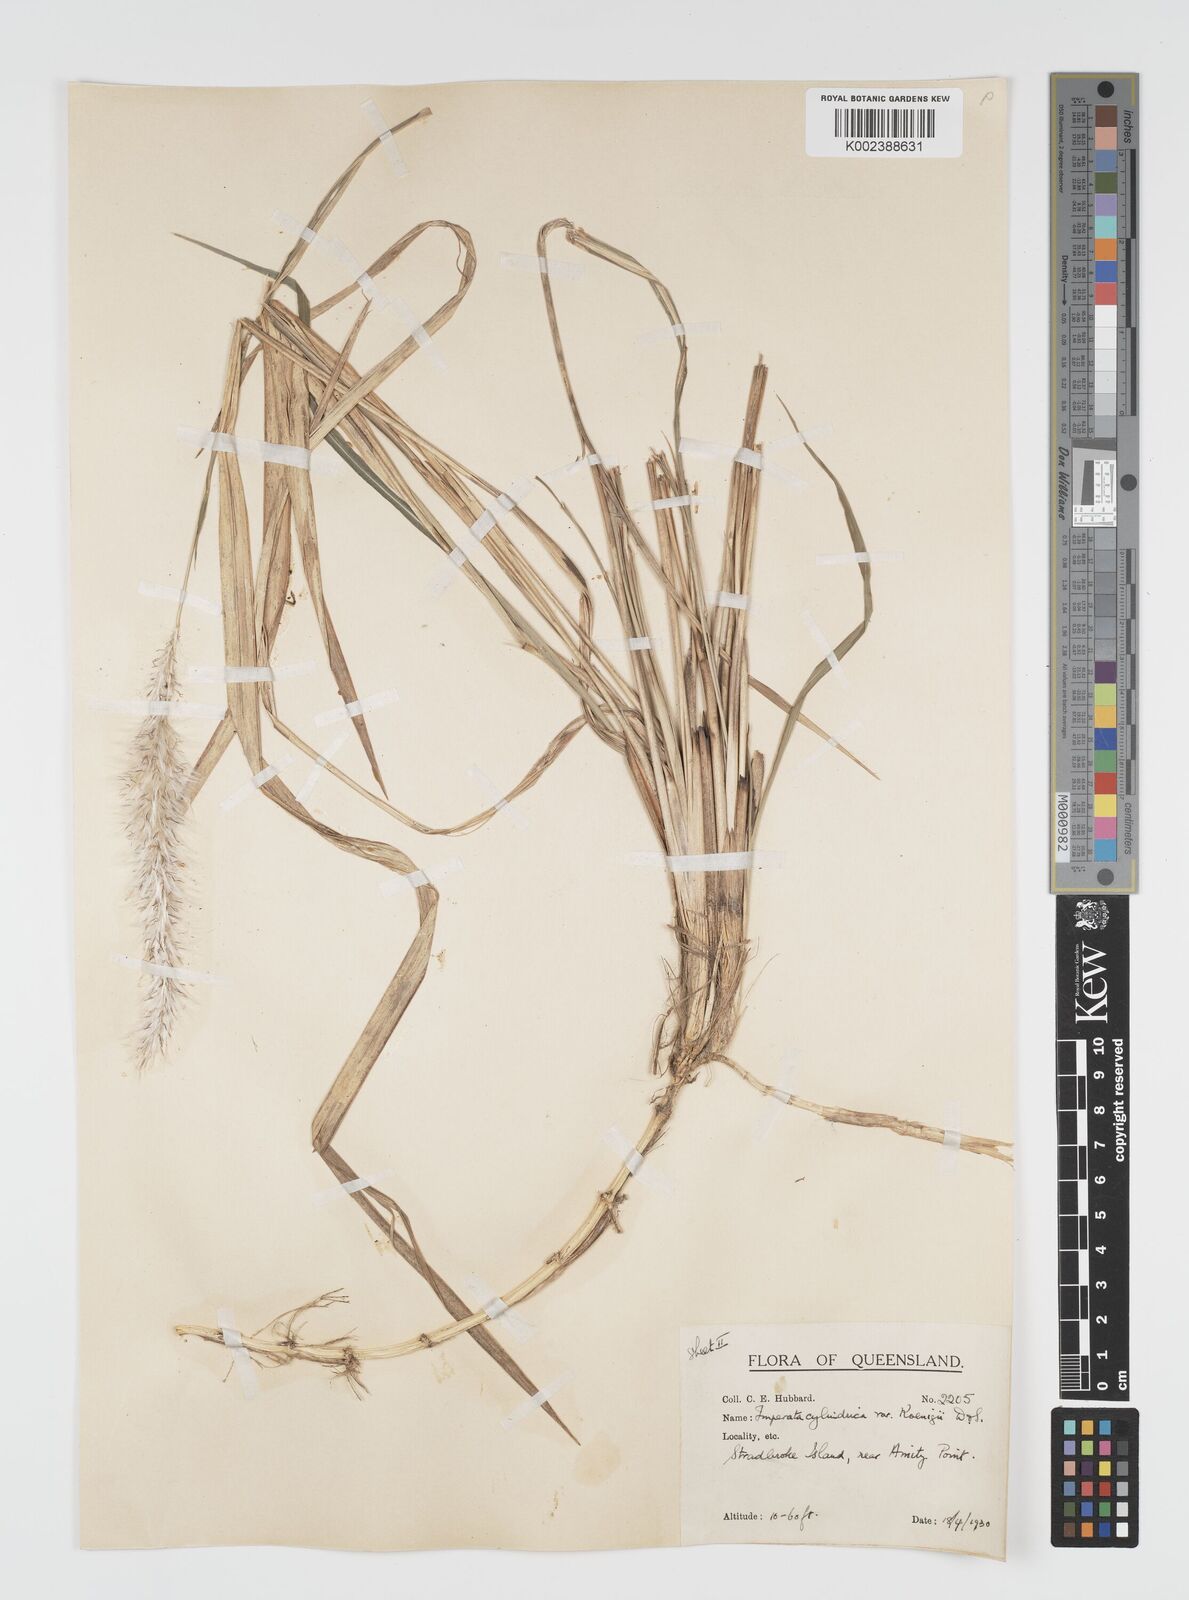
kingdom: Plantae
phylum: Tracheophyta
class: Liliopsida
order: Poales
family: Poaceae
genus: Imperata
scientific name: Imperata cylindrica
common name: Cogongrass
